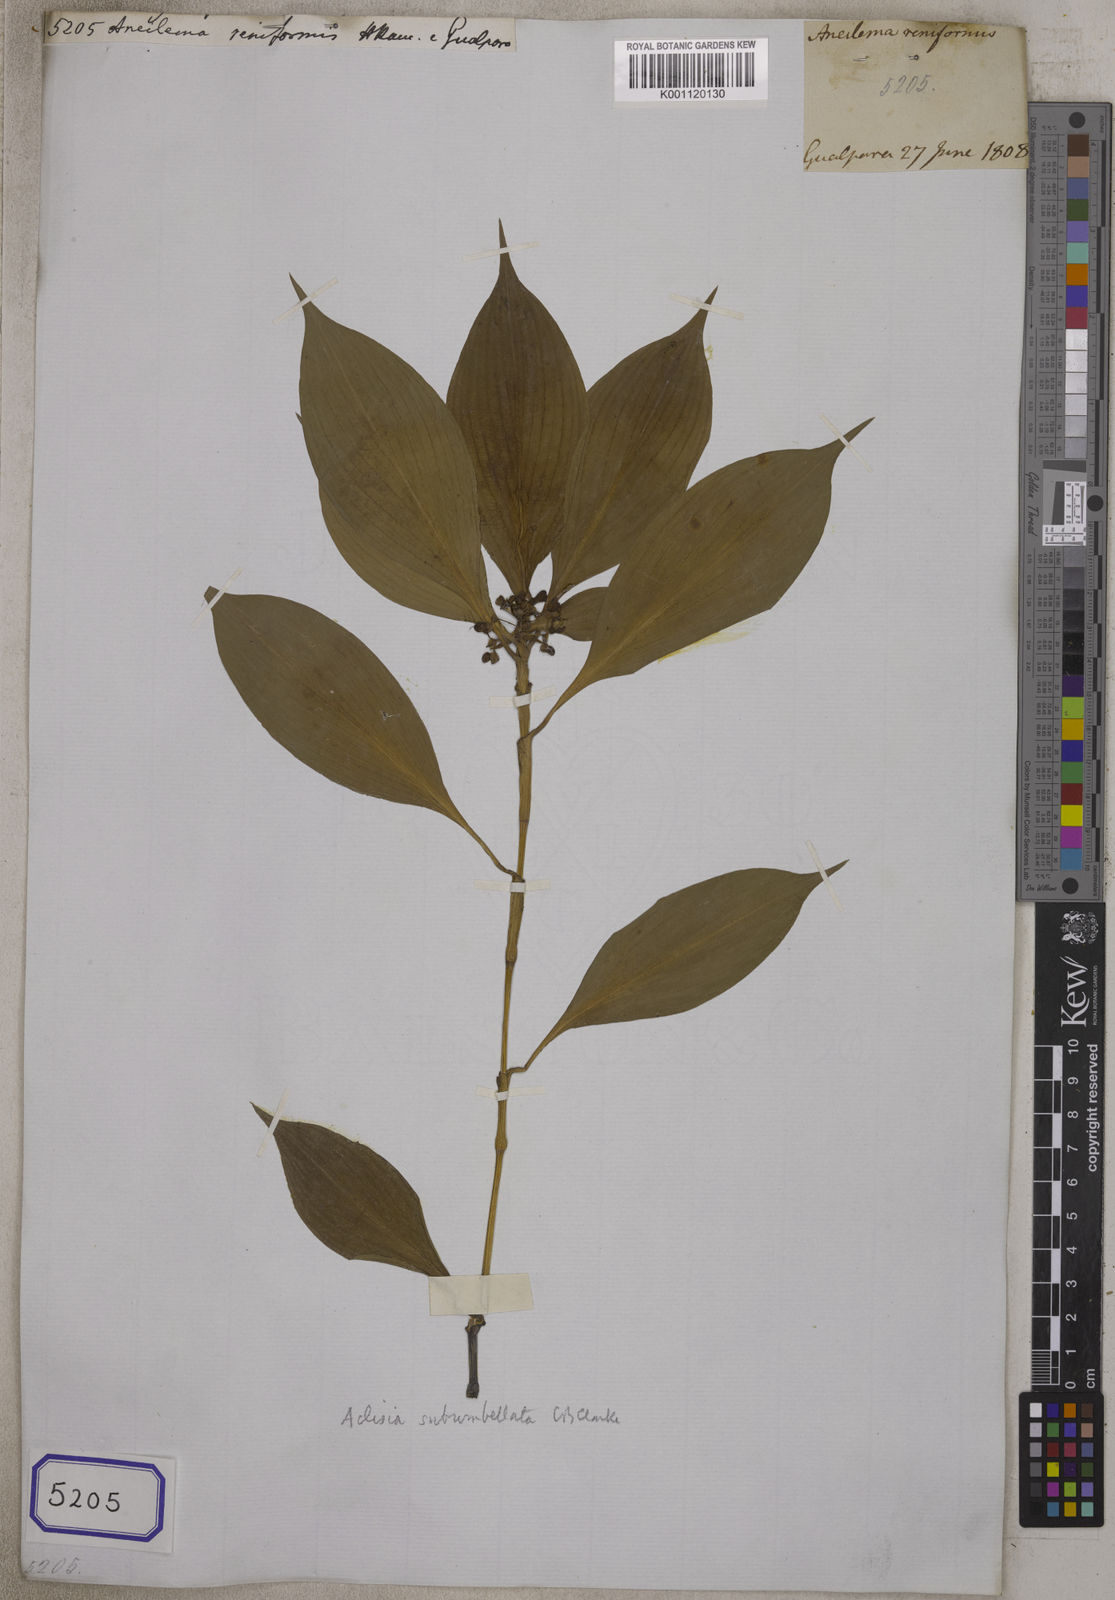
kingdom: Plantae
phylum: Tracheophyta
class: Liliopsida
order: Commelinales
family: Commelinaceae
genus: Aneilema
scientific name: Aneilema
